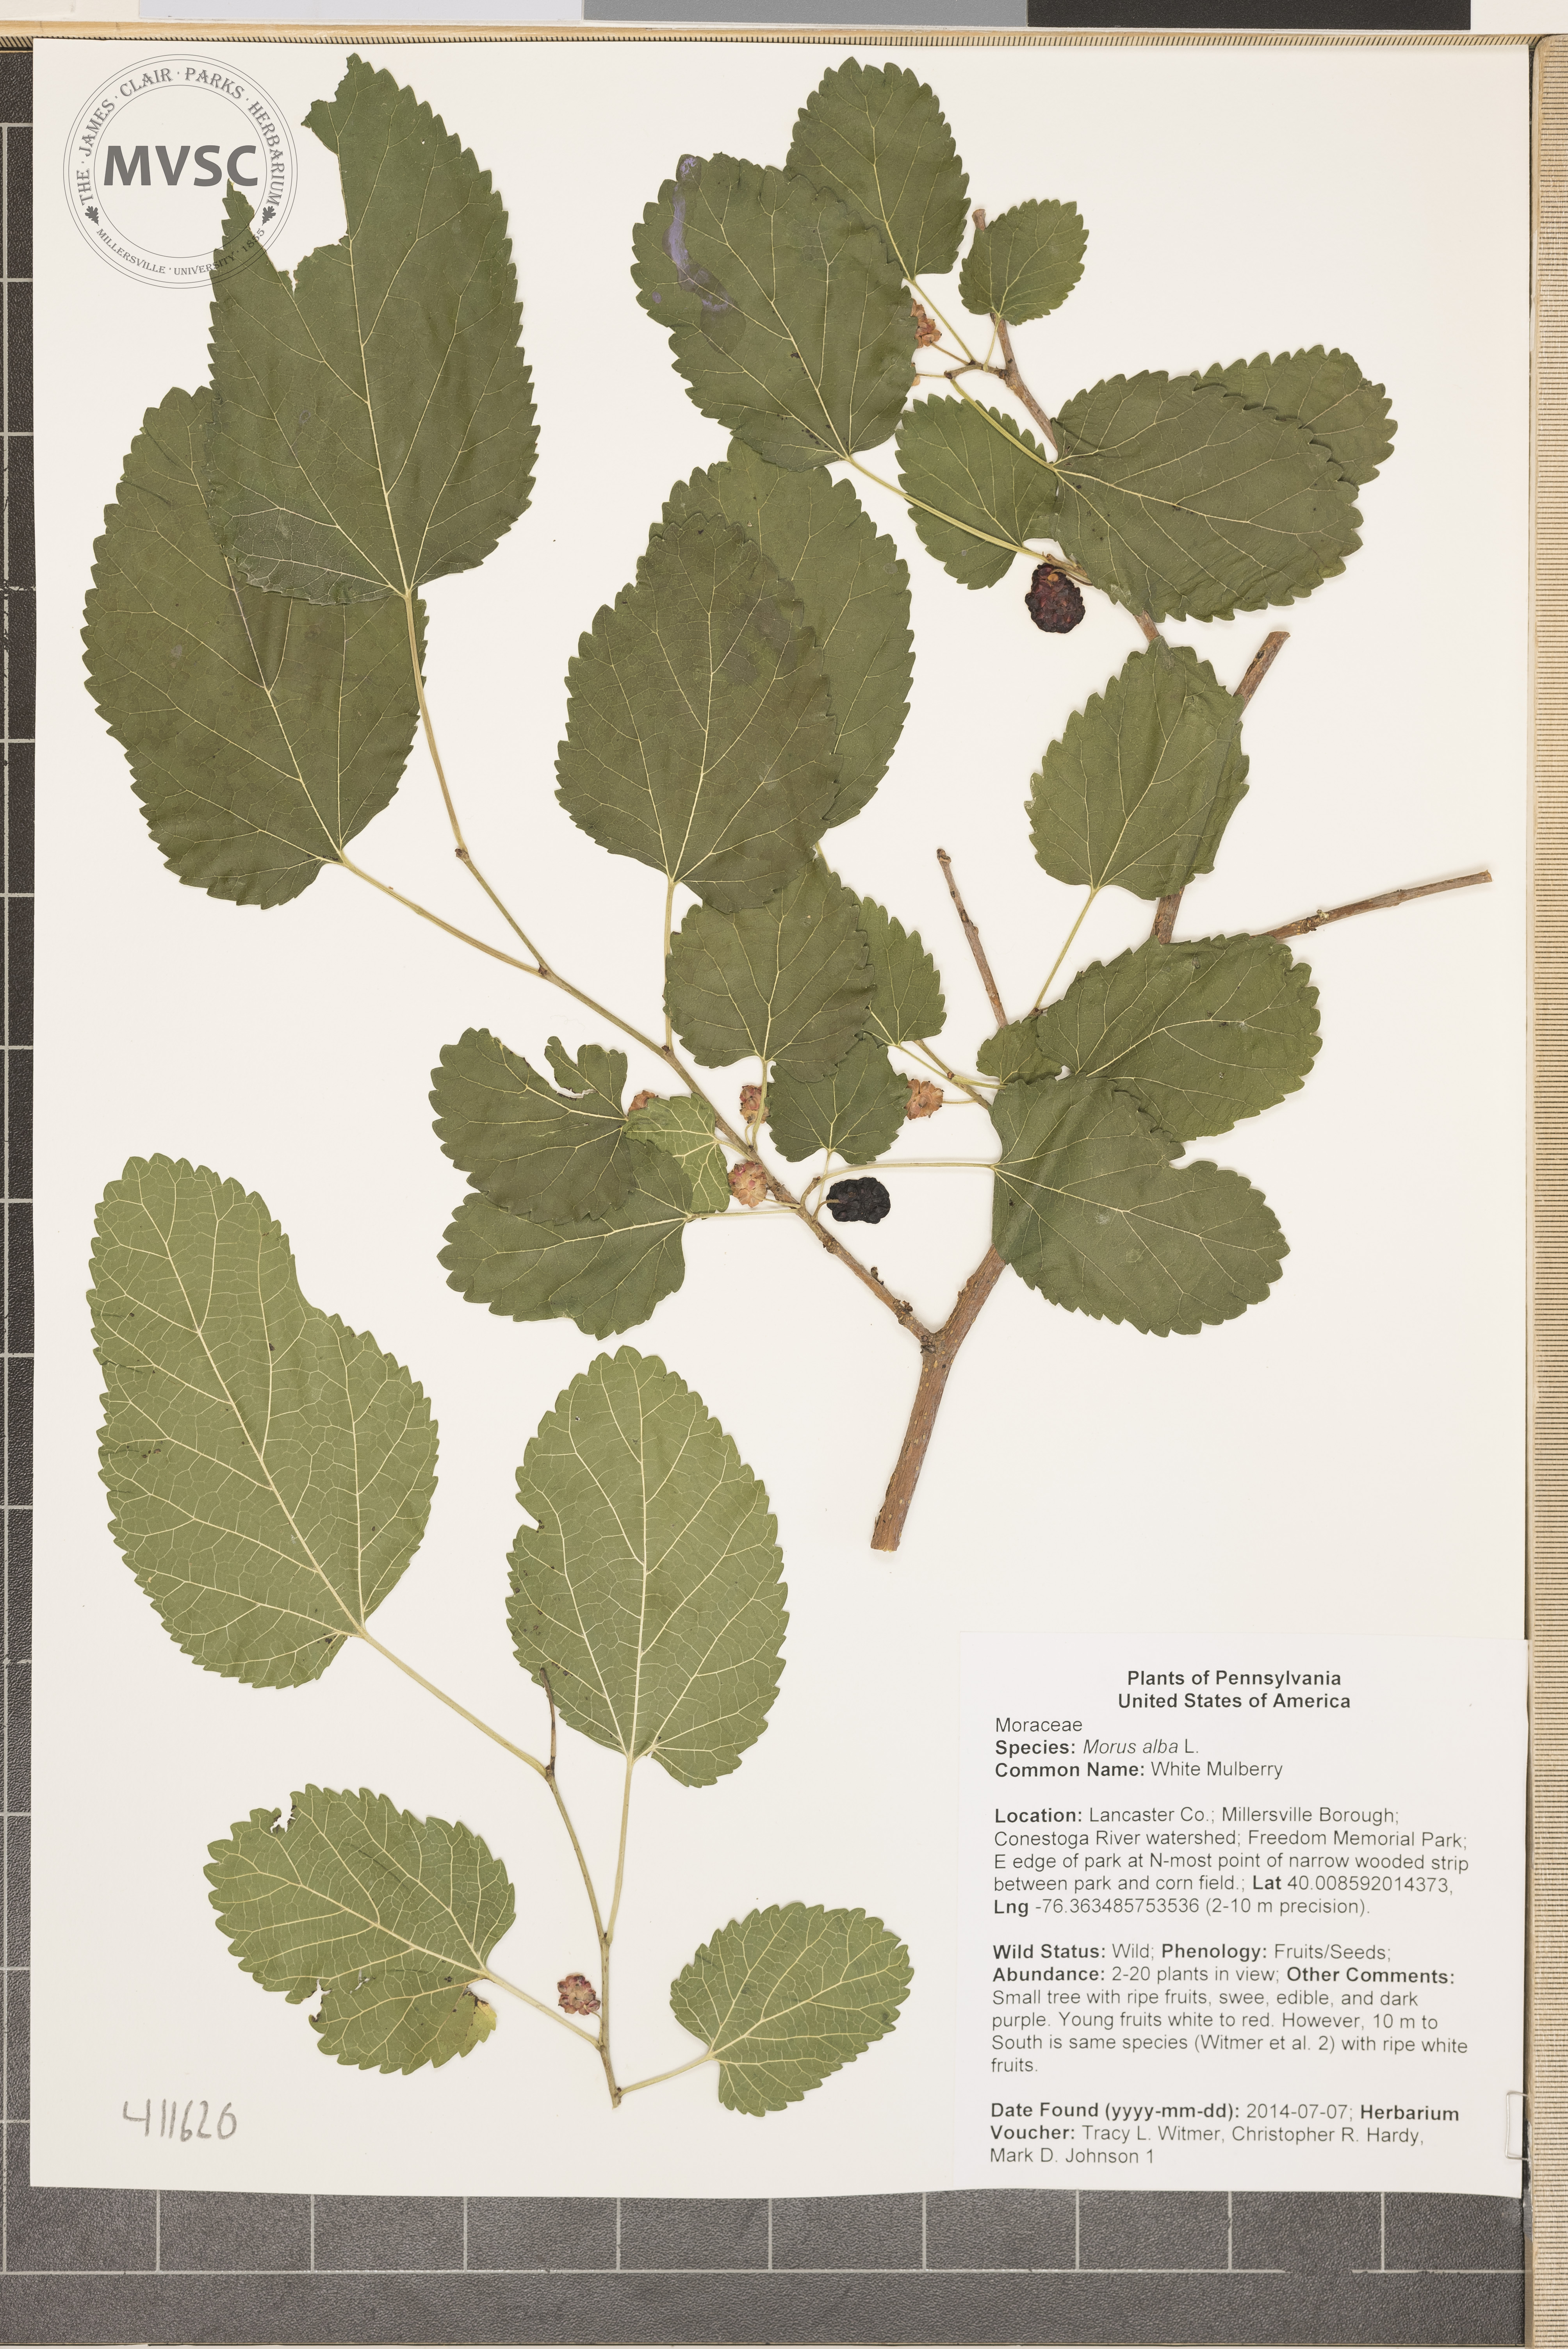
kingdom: Plantae
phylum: Tracheophyta
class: Magnoliopsida
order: Rosales
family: Moraceae
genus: Morus
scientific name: Morus alba
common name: White Mulberry
